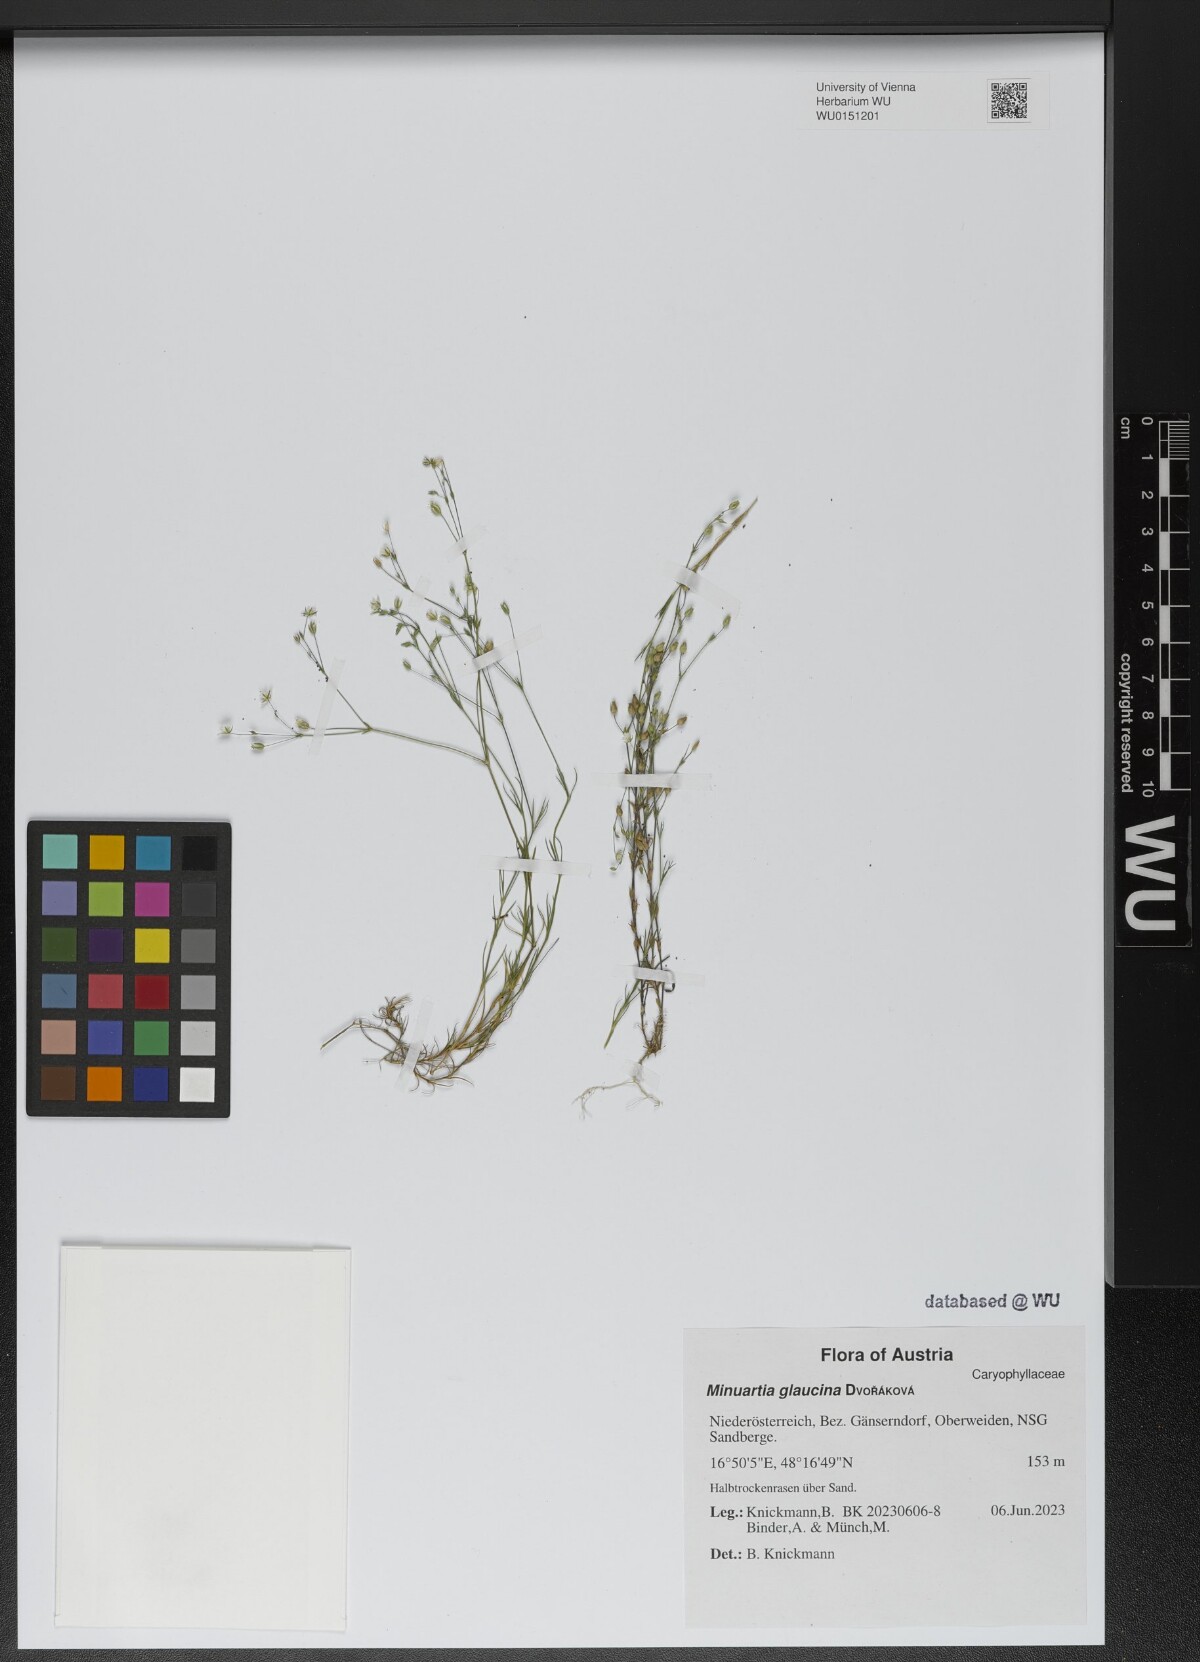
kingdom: Plantae
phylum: Tracheophyta
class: Magnoliopsida
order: Caryophyllales
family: Caryophyllaceae
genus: Sabulina
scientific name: Sabulina glaucina
